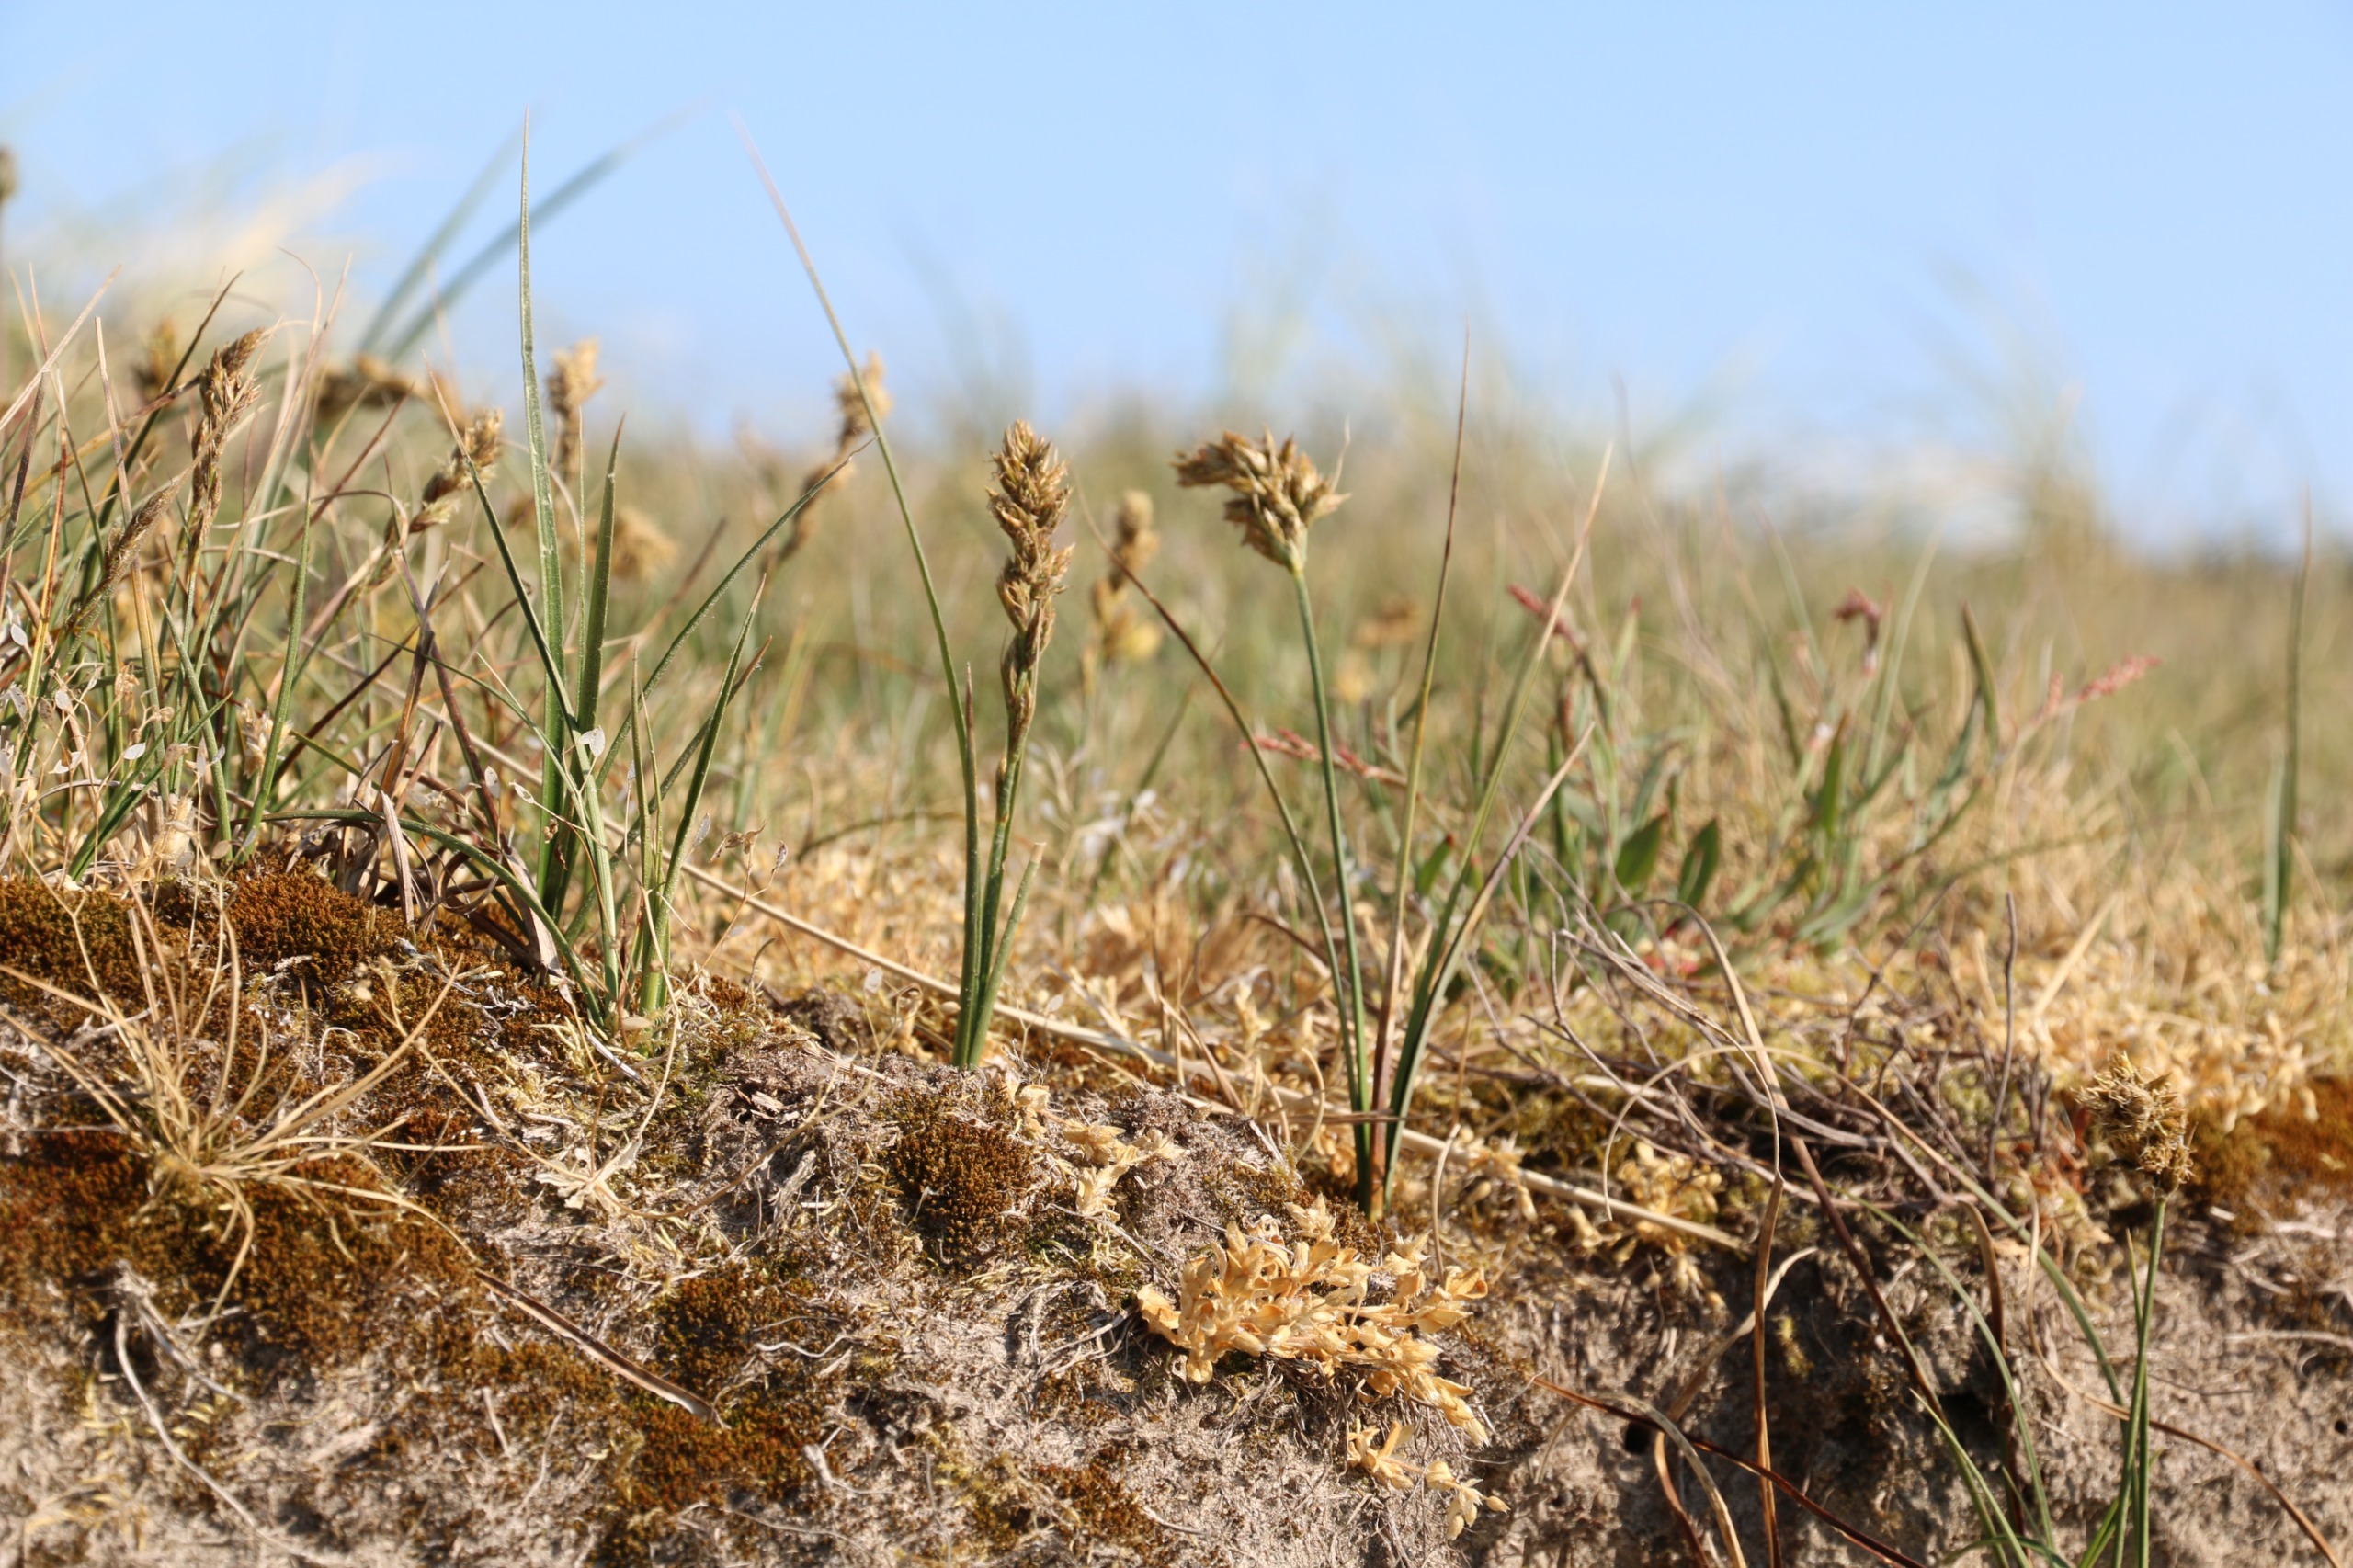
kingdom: Plantae
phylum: Tracheophyta
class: Liliopsida
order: Poales
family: Cyperaceae
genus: Carex
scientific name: Carex arenaria
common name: Sand-star
